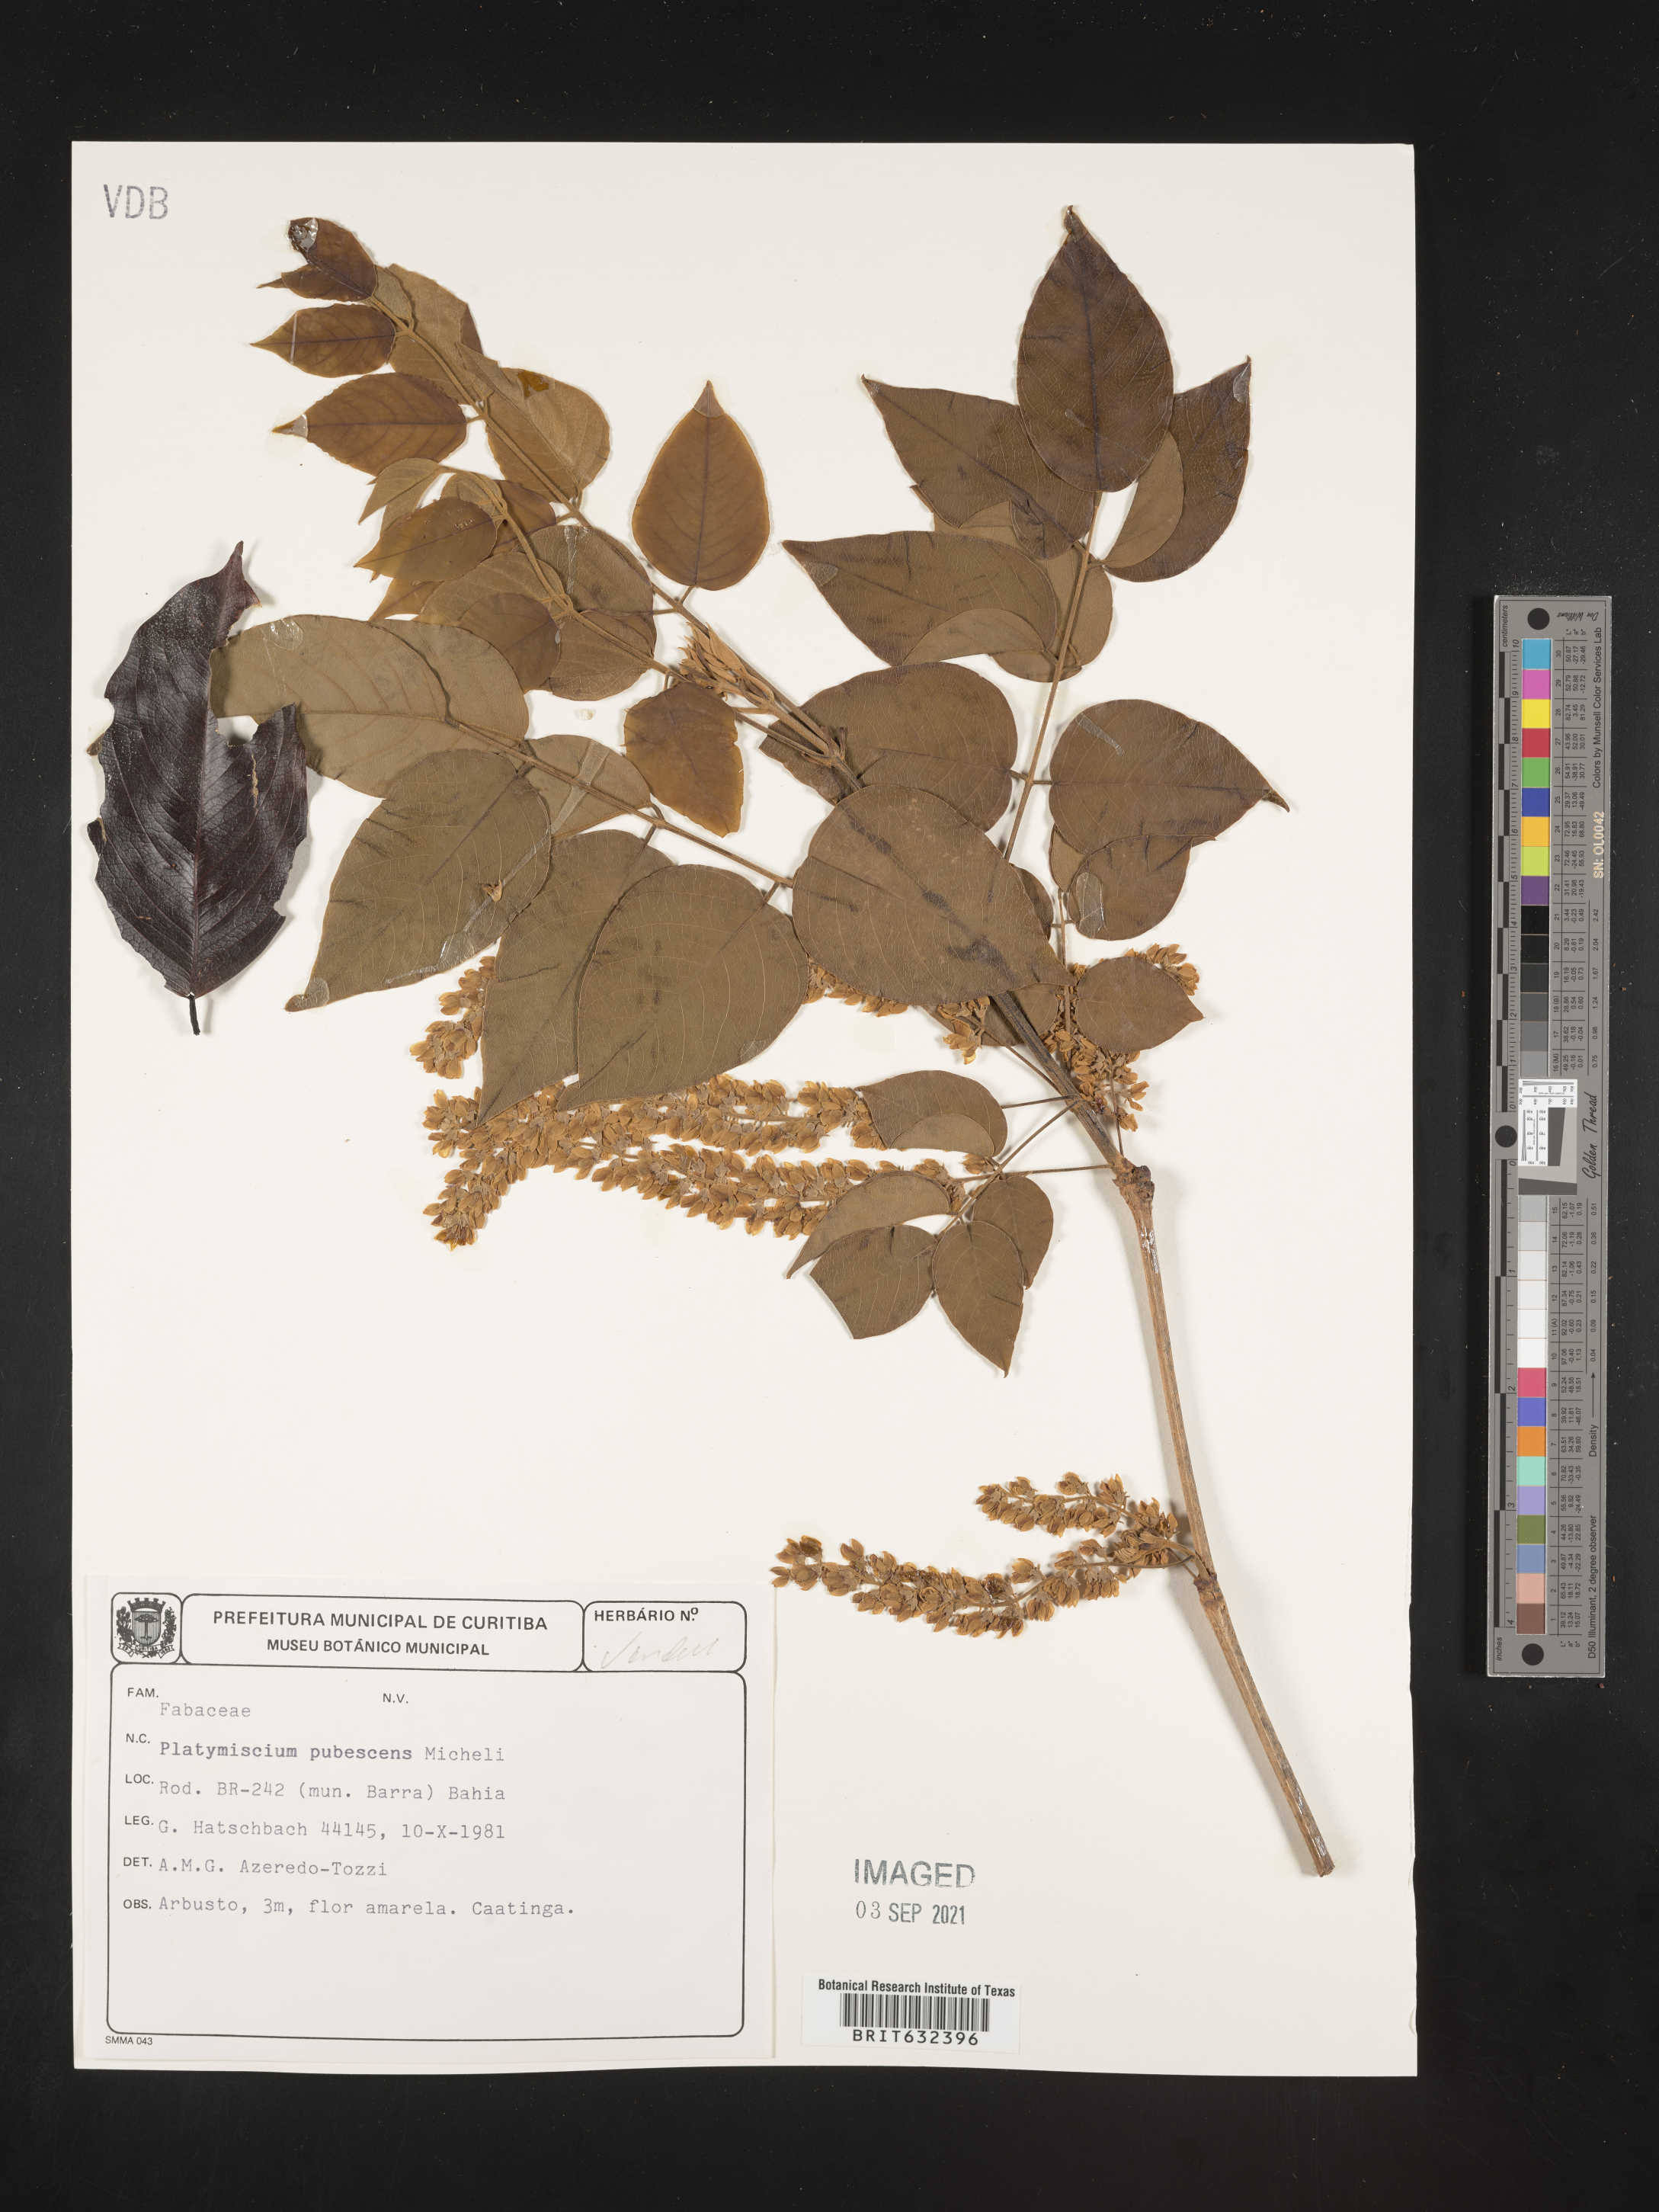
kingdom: Plantae
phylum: Tracheophyta
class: Magnoliopsida
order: Fabales
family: Fabaceae
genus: Platymiscium
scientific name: Platymiscium
